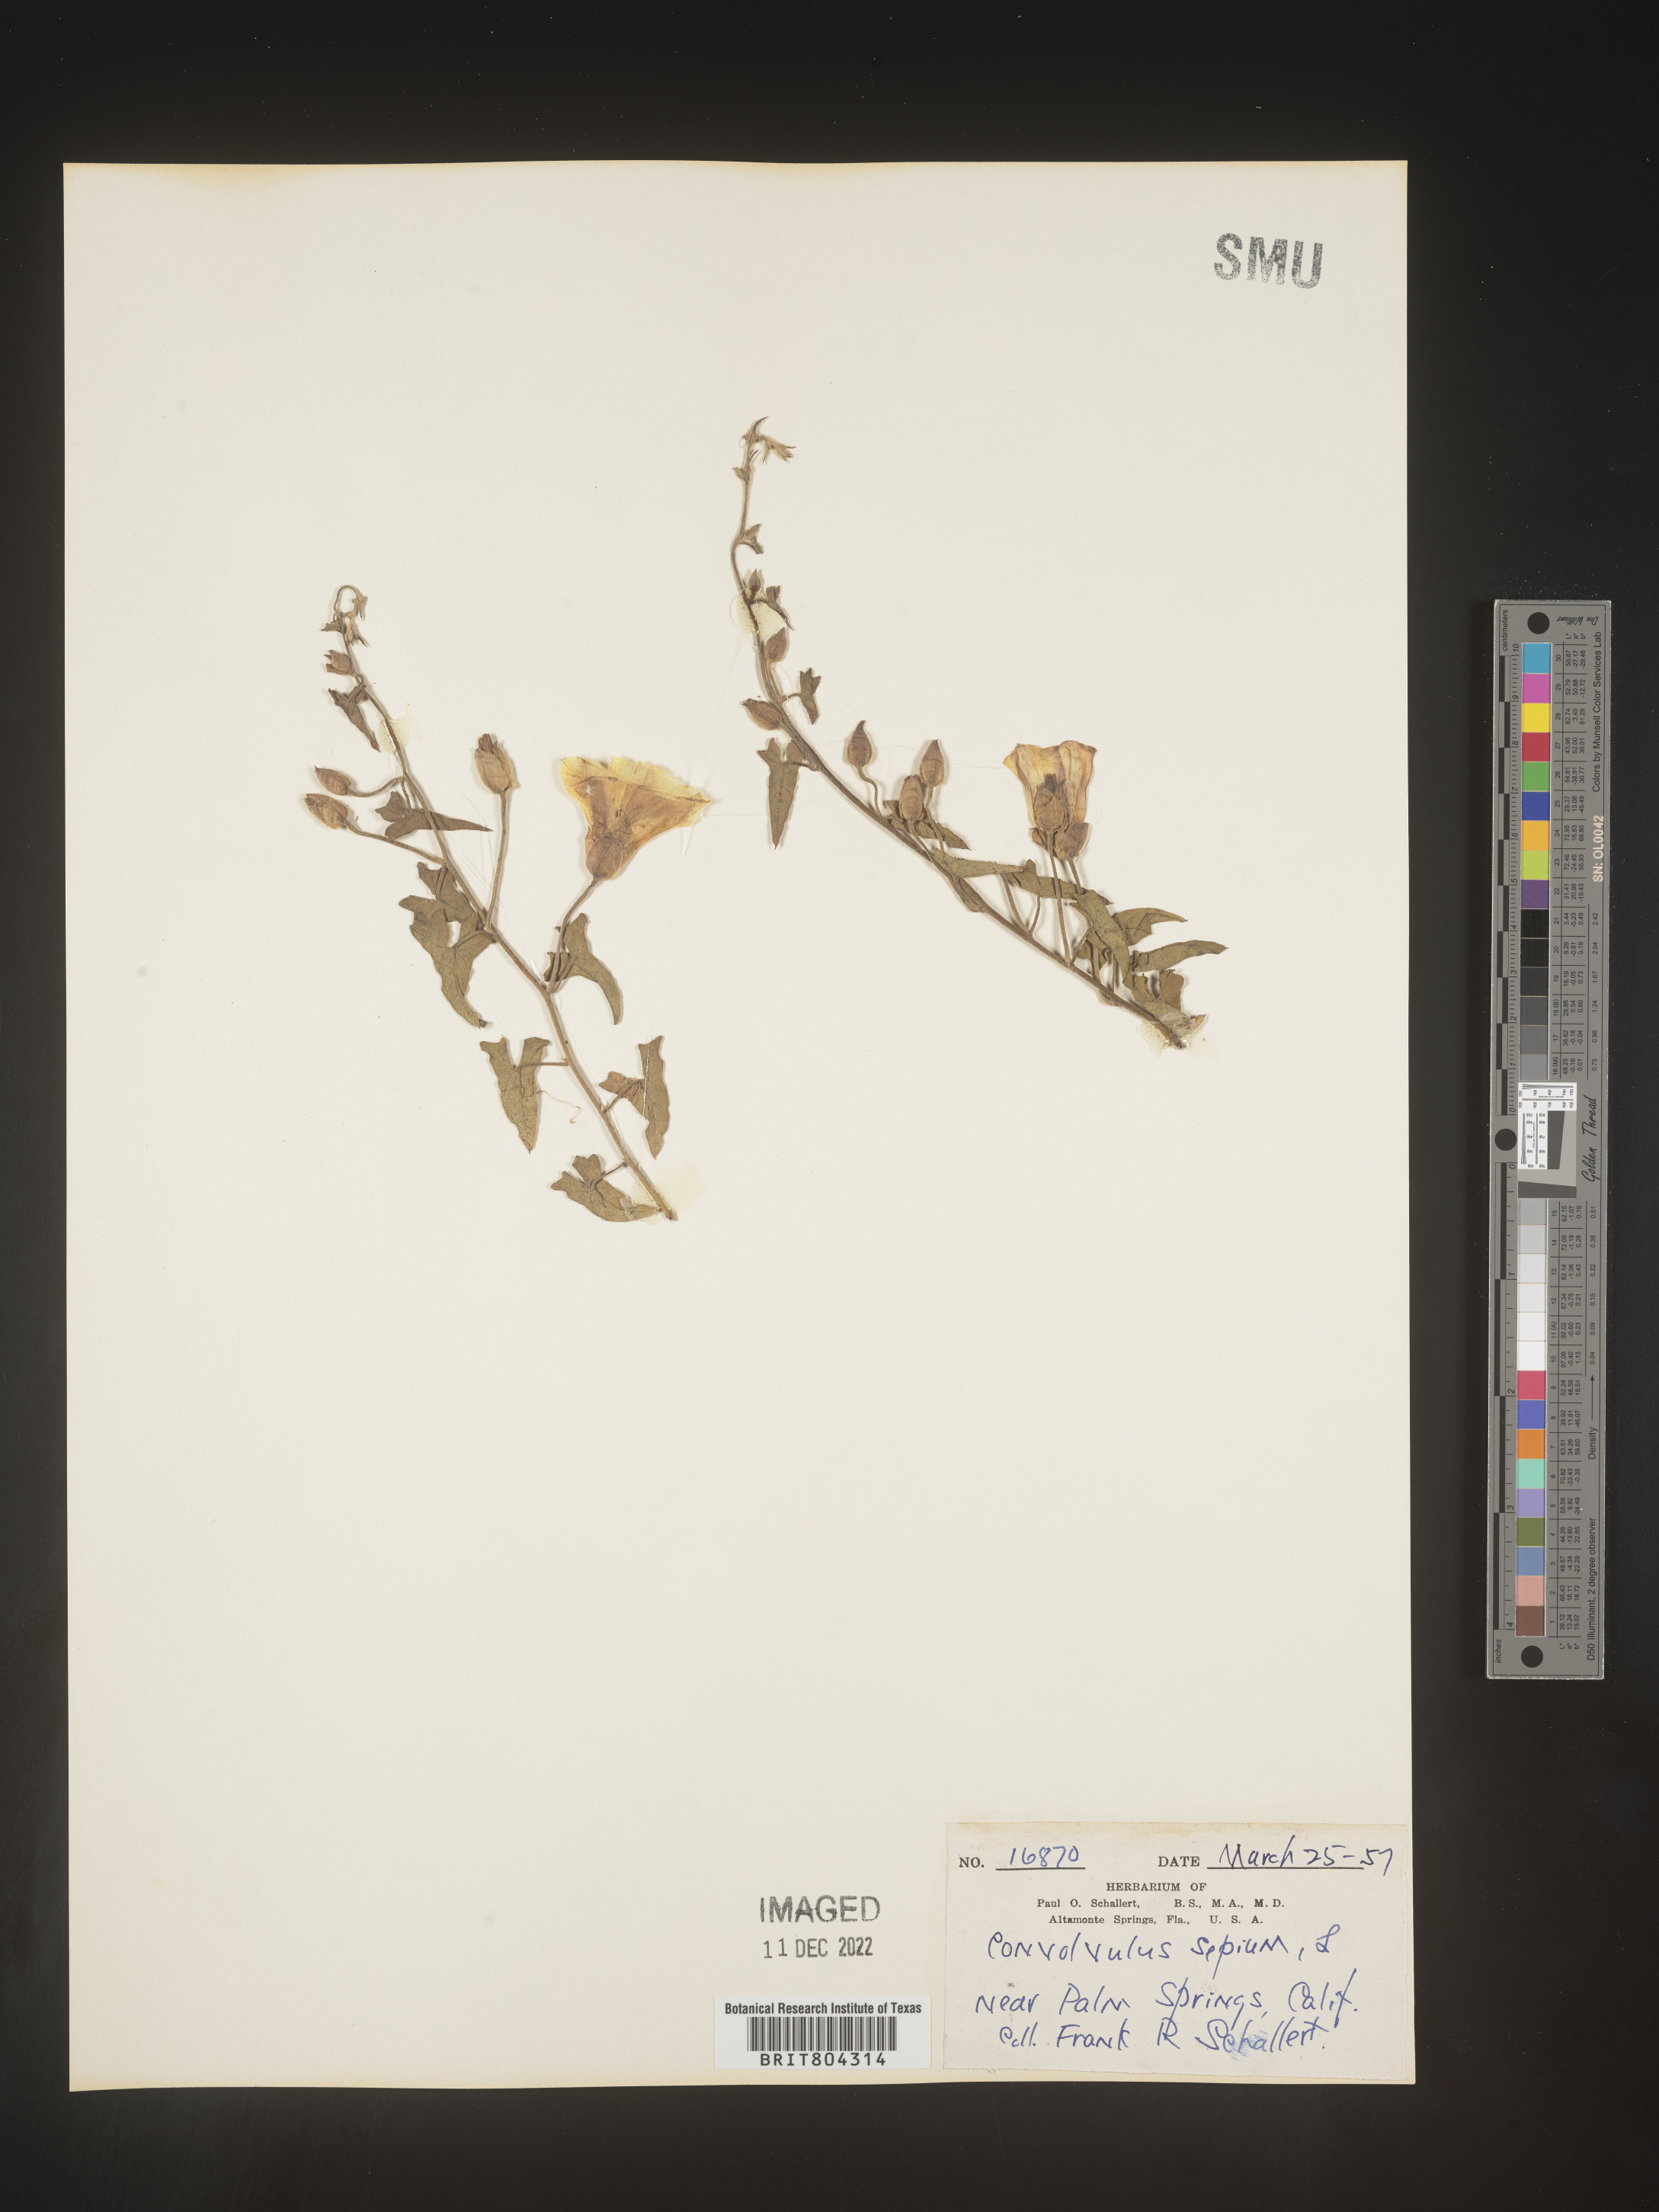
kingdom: Plantae
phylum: Tracheophyta
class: Magnoliopsida
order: Solanales
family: Convolvulaceae
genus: Calystegia
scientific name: Calystegia
